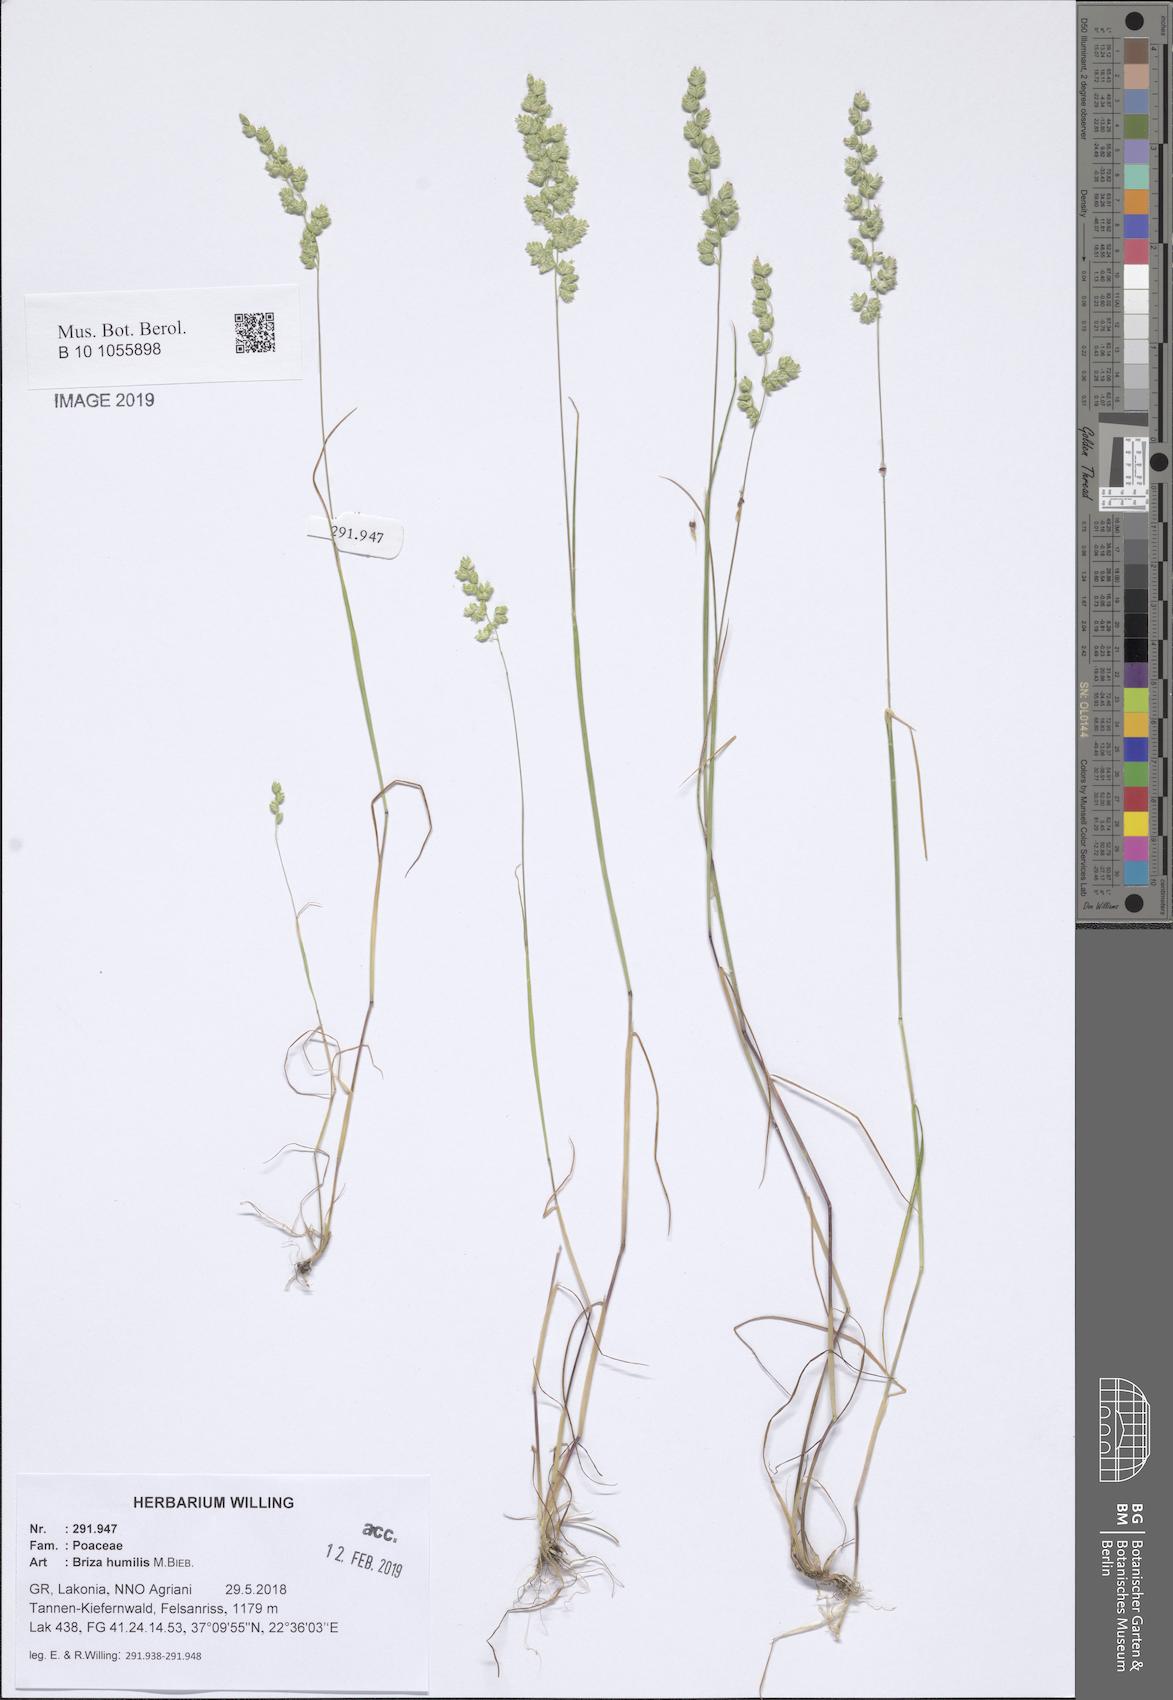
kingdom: Plantae
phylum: Tracheophyta
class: Liliopsida
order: Poales
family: Poaceae
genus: Briza
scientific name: Briza humilis
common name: Spiked quaking grass
